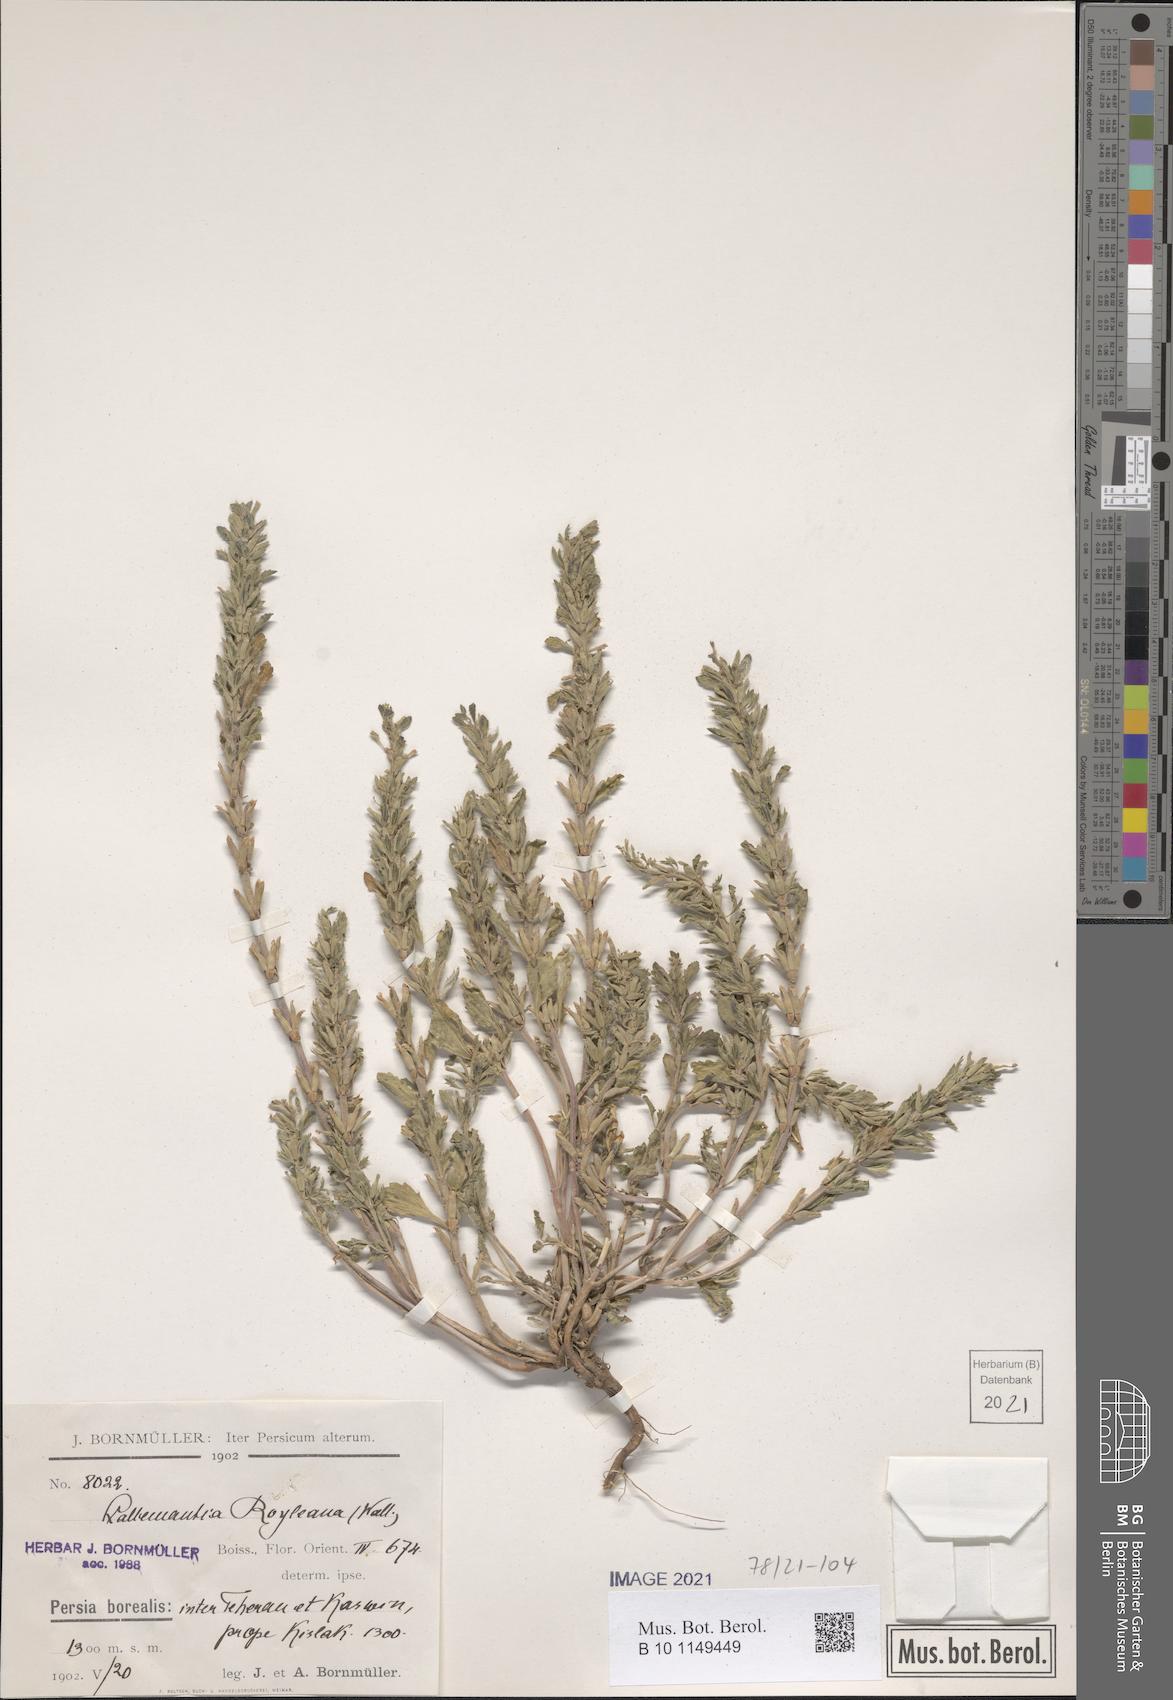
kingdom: Plantae
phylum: Tracheophyta
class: Magnoliopsida
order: Lamiales
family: Lamiaceae
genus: Lallemantia
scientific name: Lallemantia royleana
